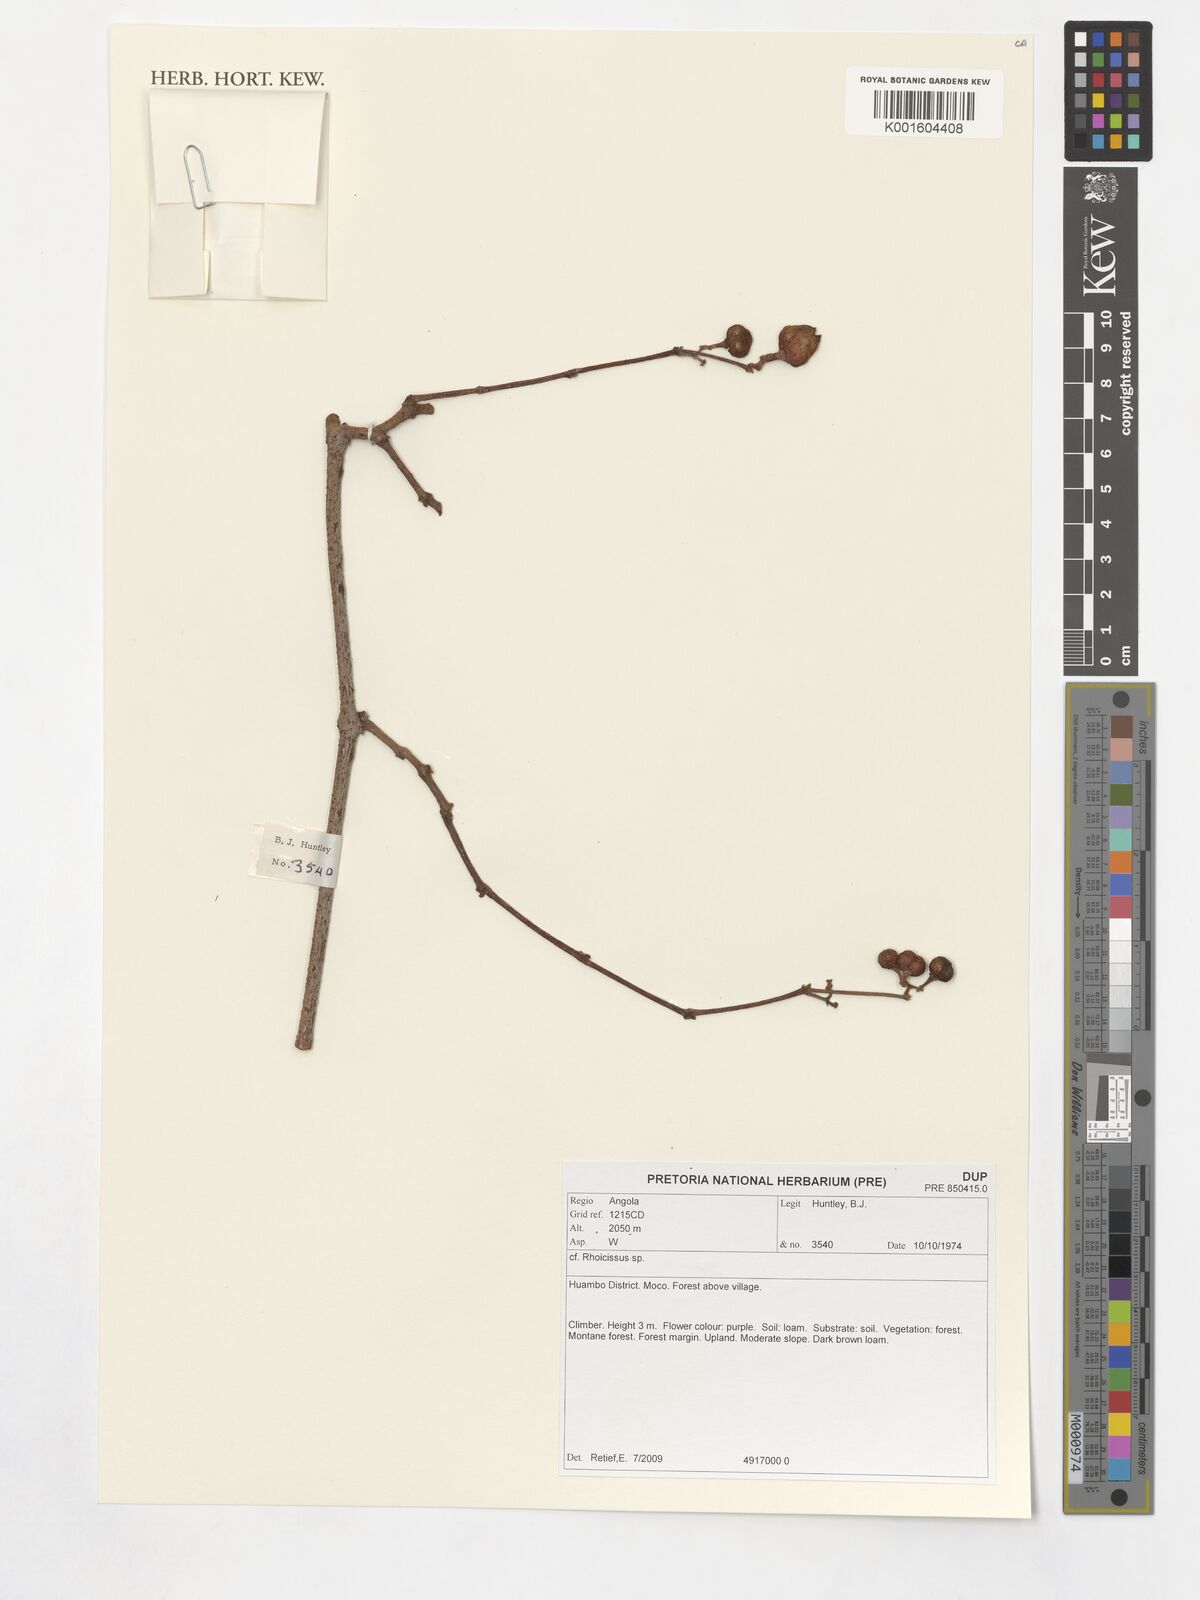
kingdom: Plantae
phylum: Tracheophyta
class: Magnoliopsida
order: Vitales
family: Vitaceae
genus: Rhoicissus
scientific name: Rhoicissus
